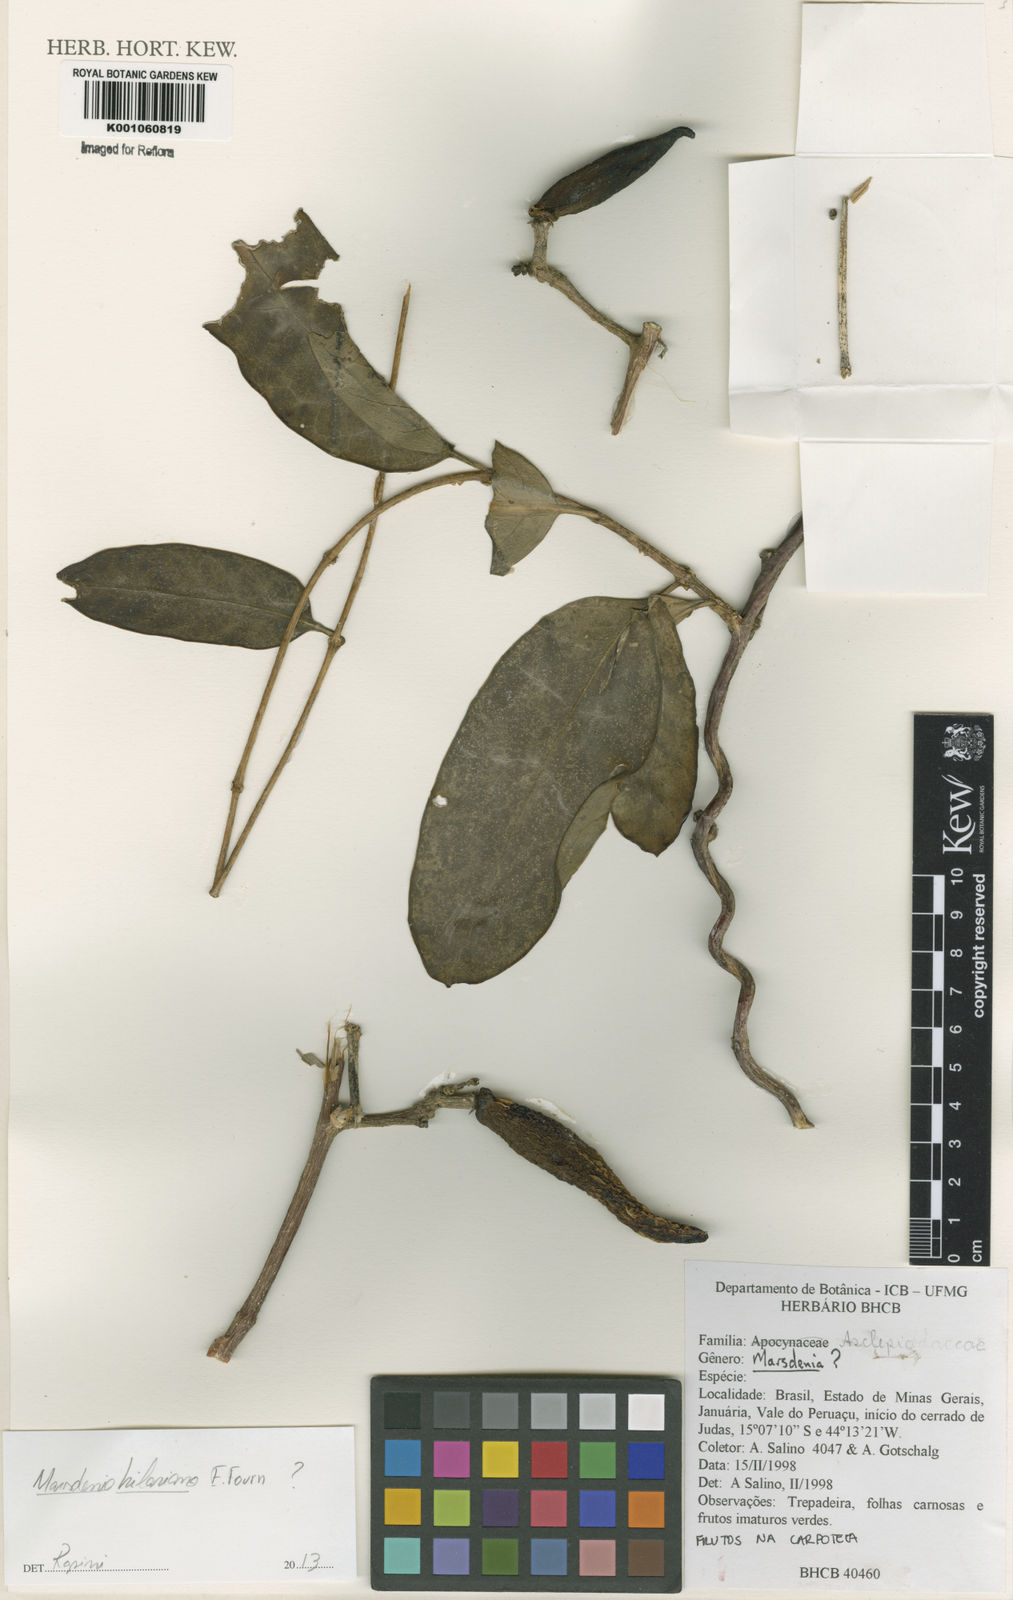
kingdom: Plantae
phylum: Tracheophyta
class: Magnoliopsida
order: Gentianales
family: Apocynaceae
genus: Marsdenia
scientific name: Marsdenia
